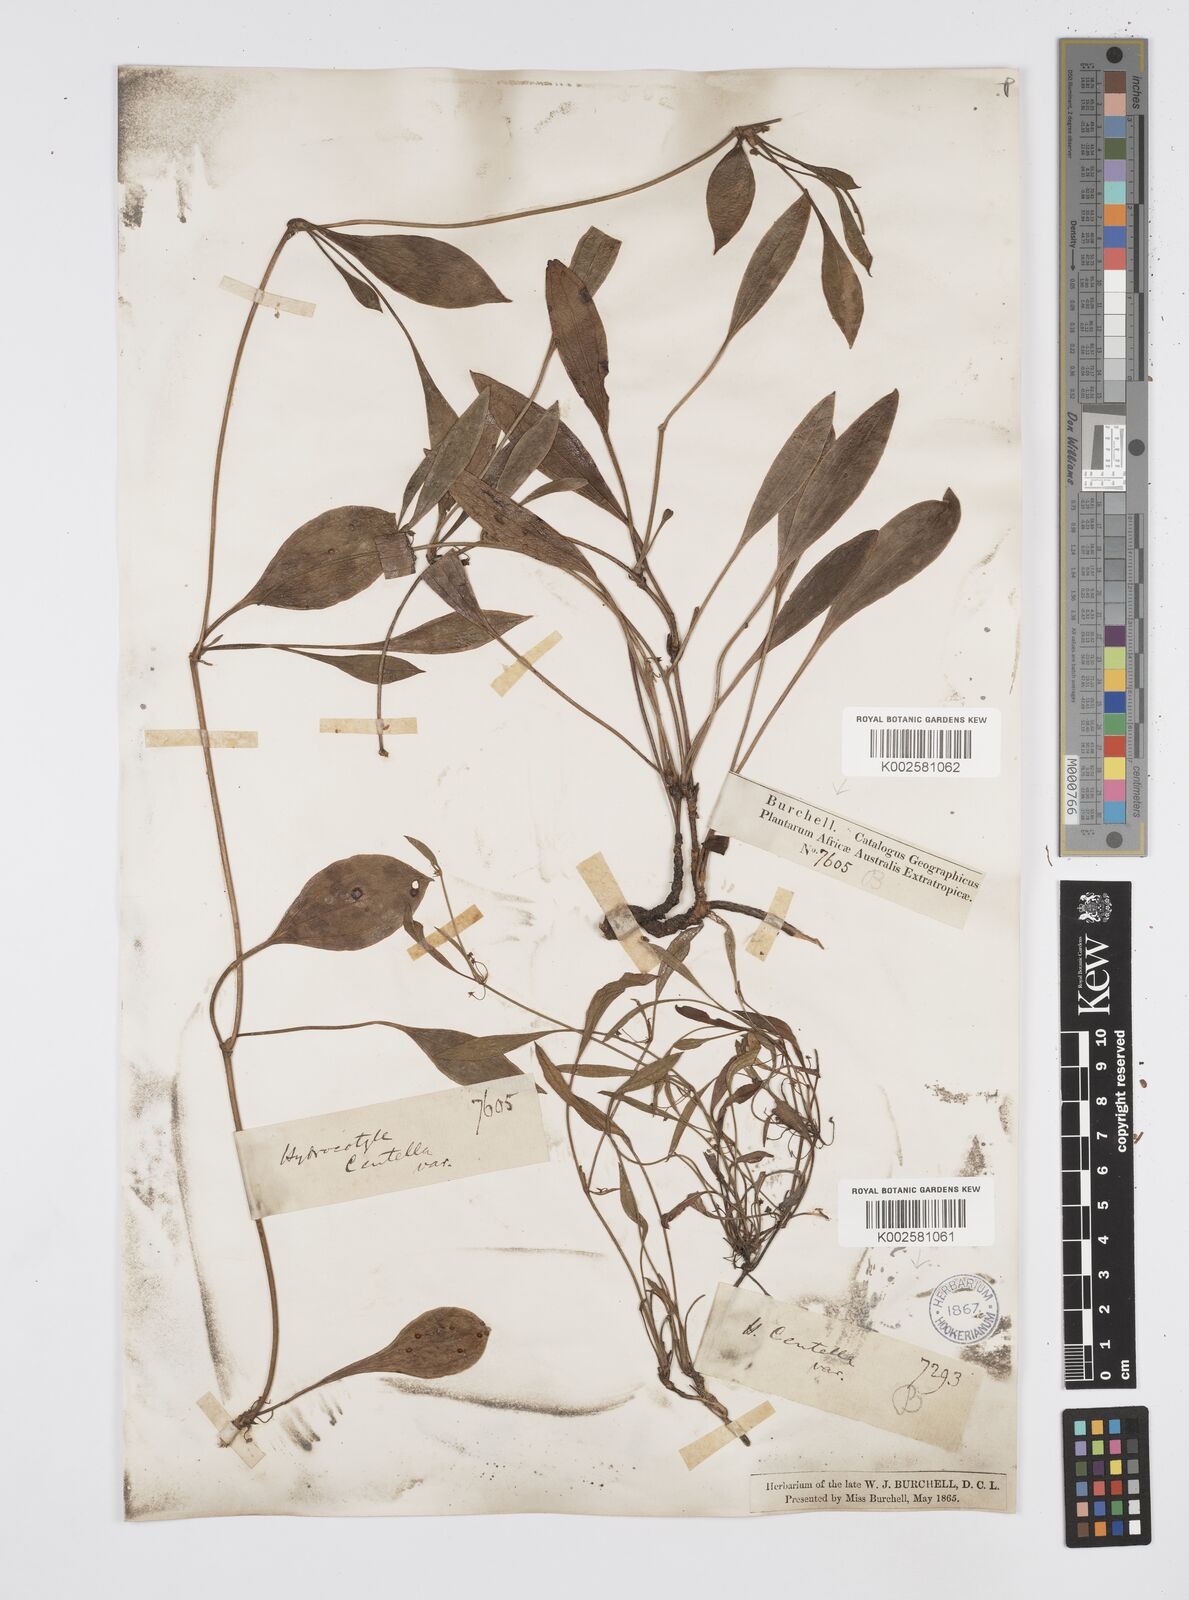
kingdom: Plantae
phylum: Tracheophyta
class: Magnoliopsida
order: Apiales
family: Apiaceae
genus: Centella
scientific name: Centella glabrata
